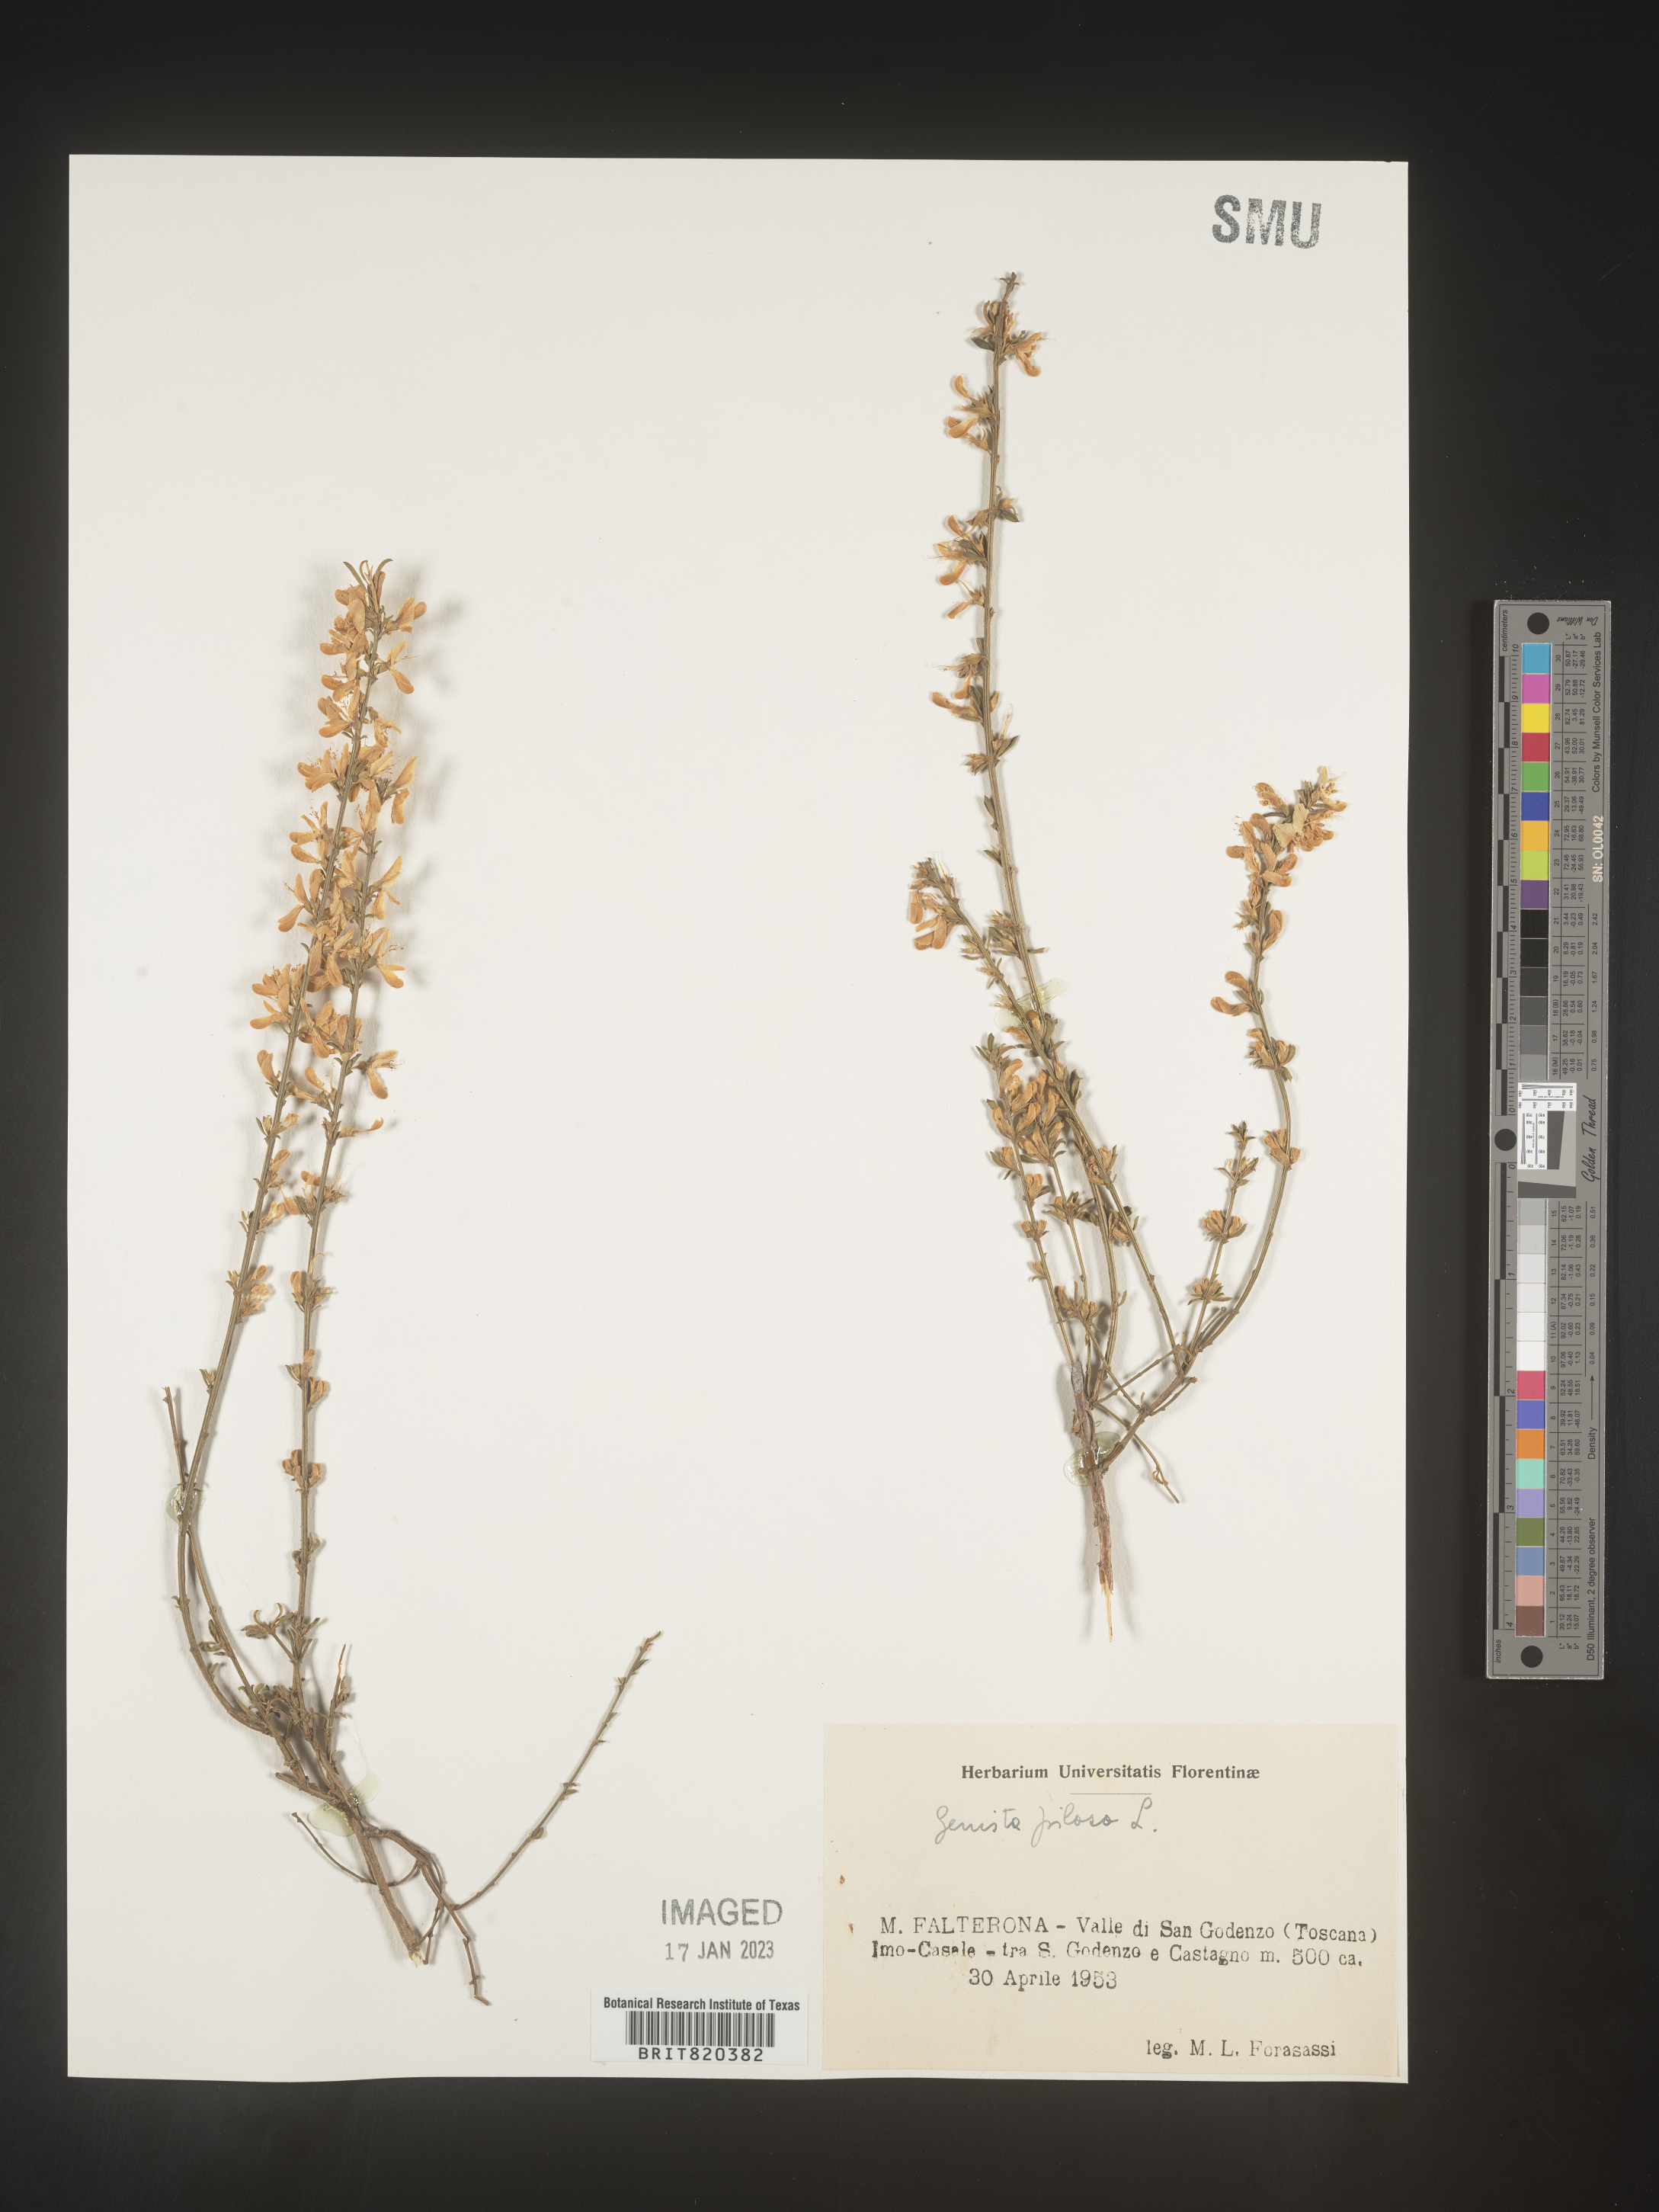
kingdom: Plantae
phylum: Tracheophyta
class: Magnoliopsida
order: Fabales
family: Fabaceae
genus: Genista
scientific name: Genista
